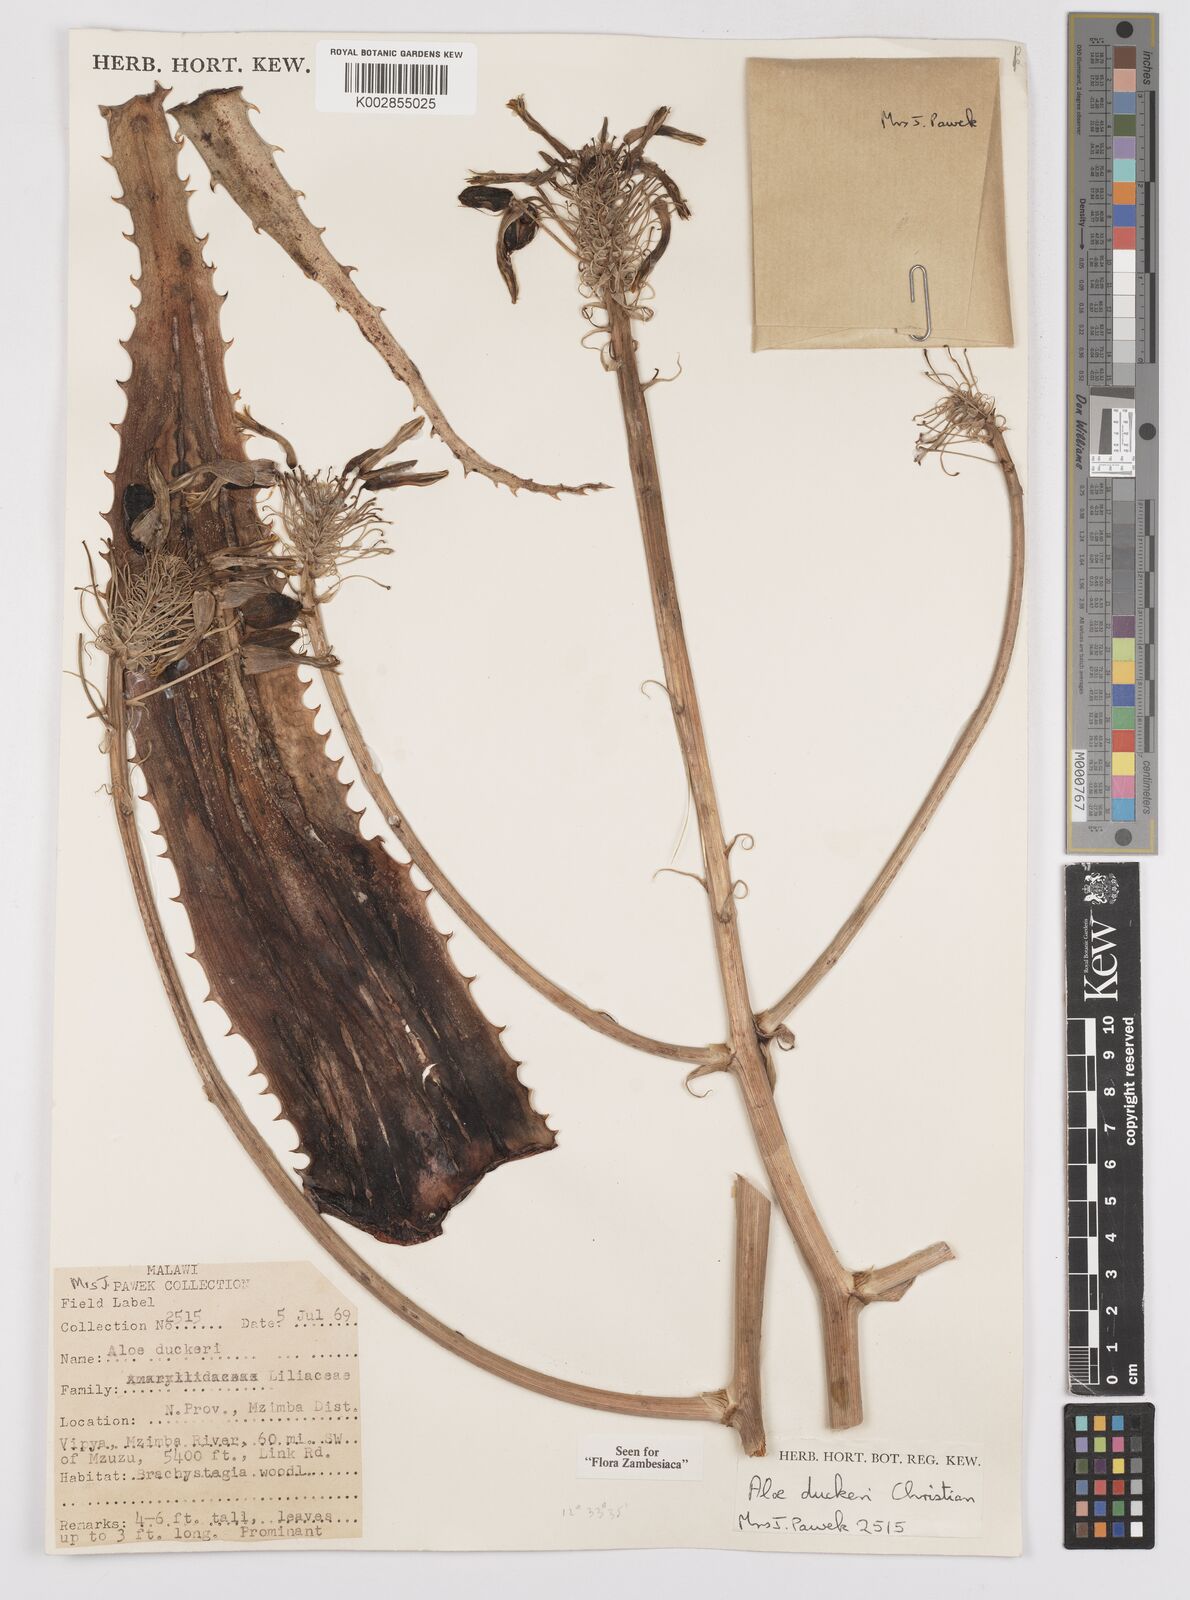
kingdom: Plantae
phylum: Tracheophyta
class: Liliopsida
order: Asparagales
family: Asphodelaceae
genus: Aloe
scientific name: Aloe duckeri
